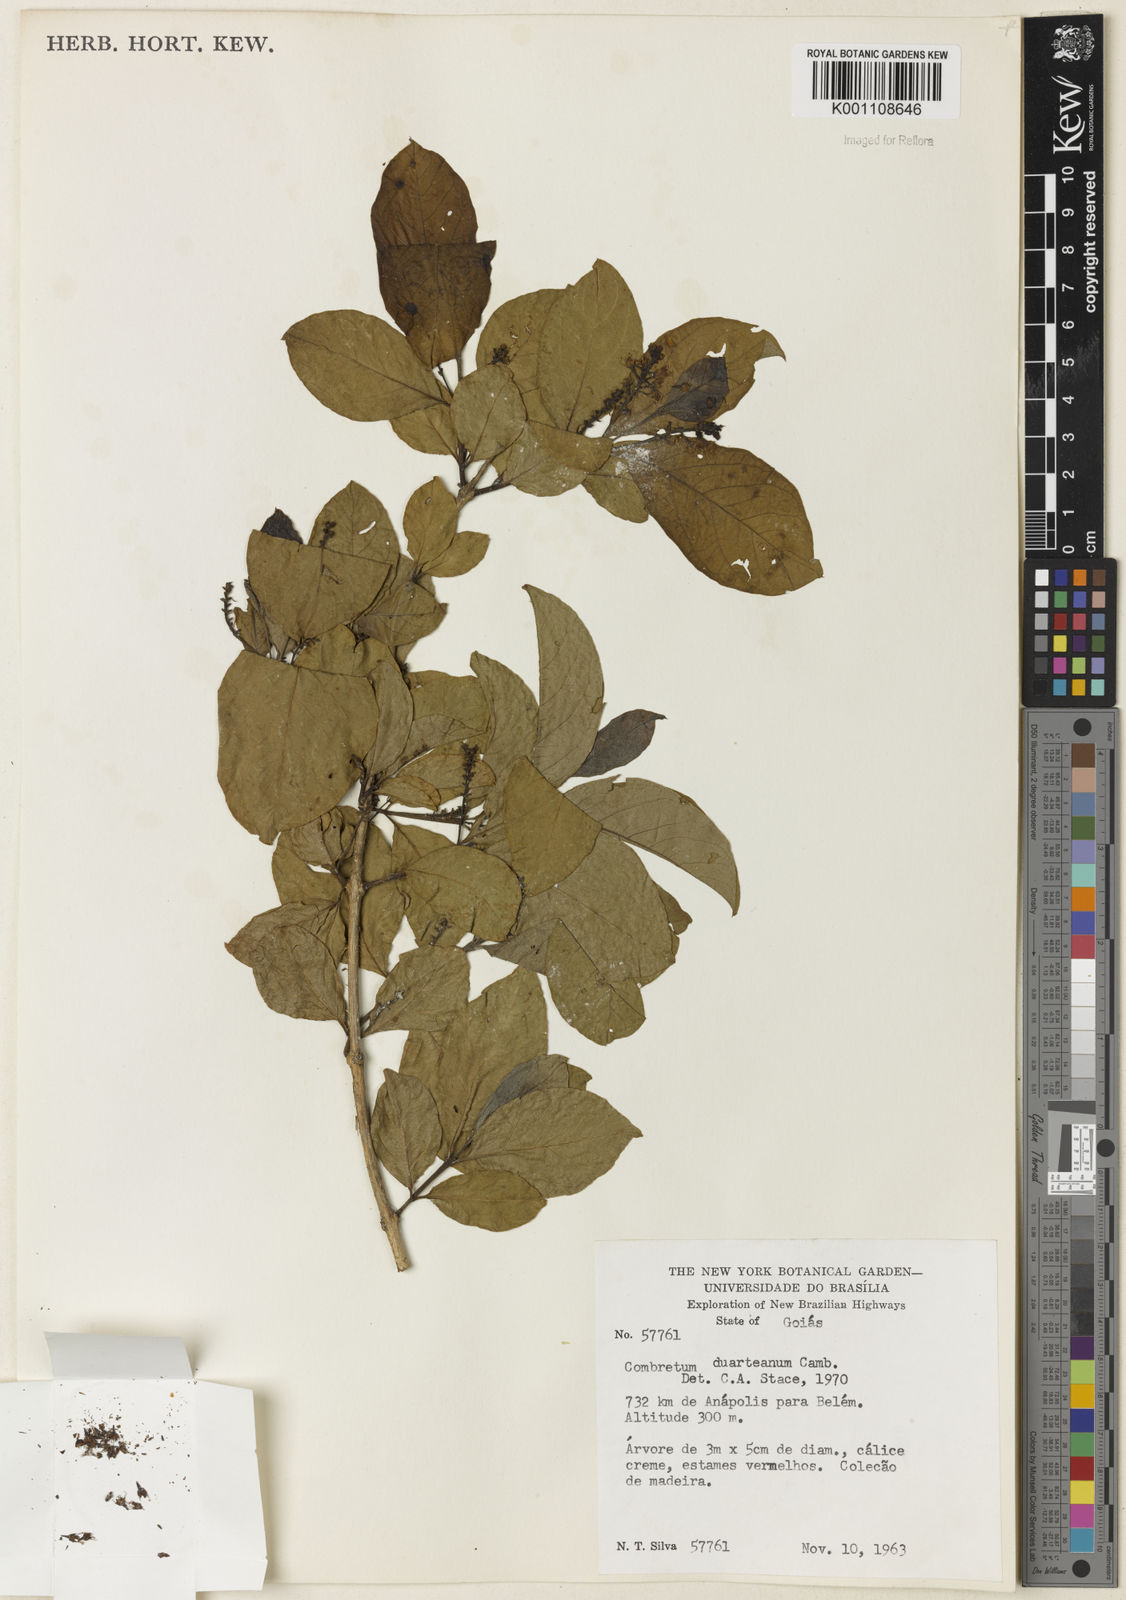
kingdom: Plantae
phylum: Tracheophyta
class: Magnoliopsida
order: Myrtales
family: Combretaceae
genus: Combretum
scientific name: Combretum duarteanum
